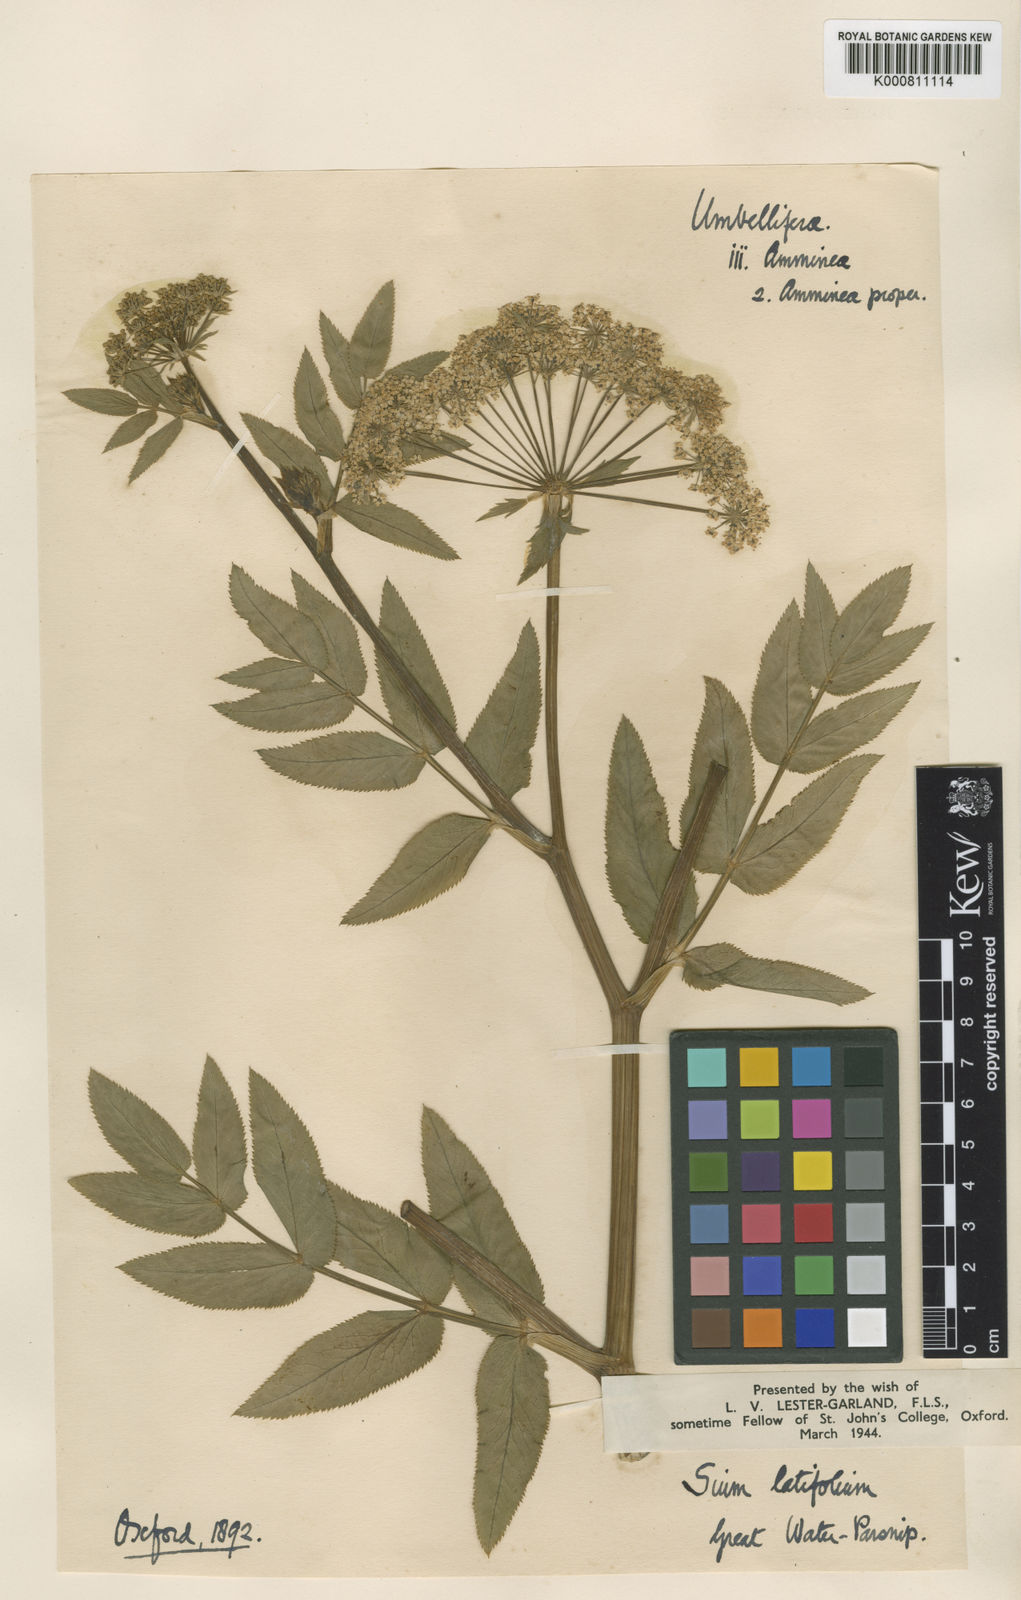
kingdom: Plantae
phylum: Tracheophyta
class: Magnoliopsida
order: Apiales
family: Apiaceae
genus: Sium
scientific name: Sium latifolium
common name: Greater water-parsnip
